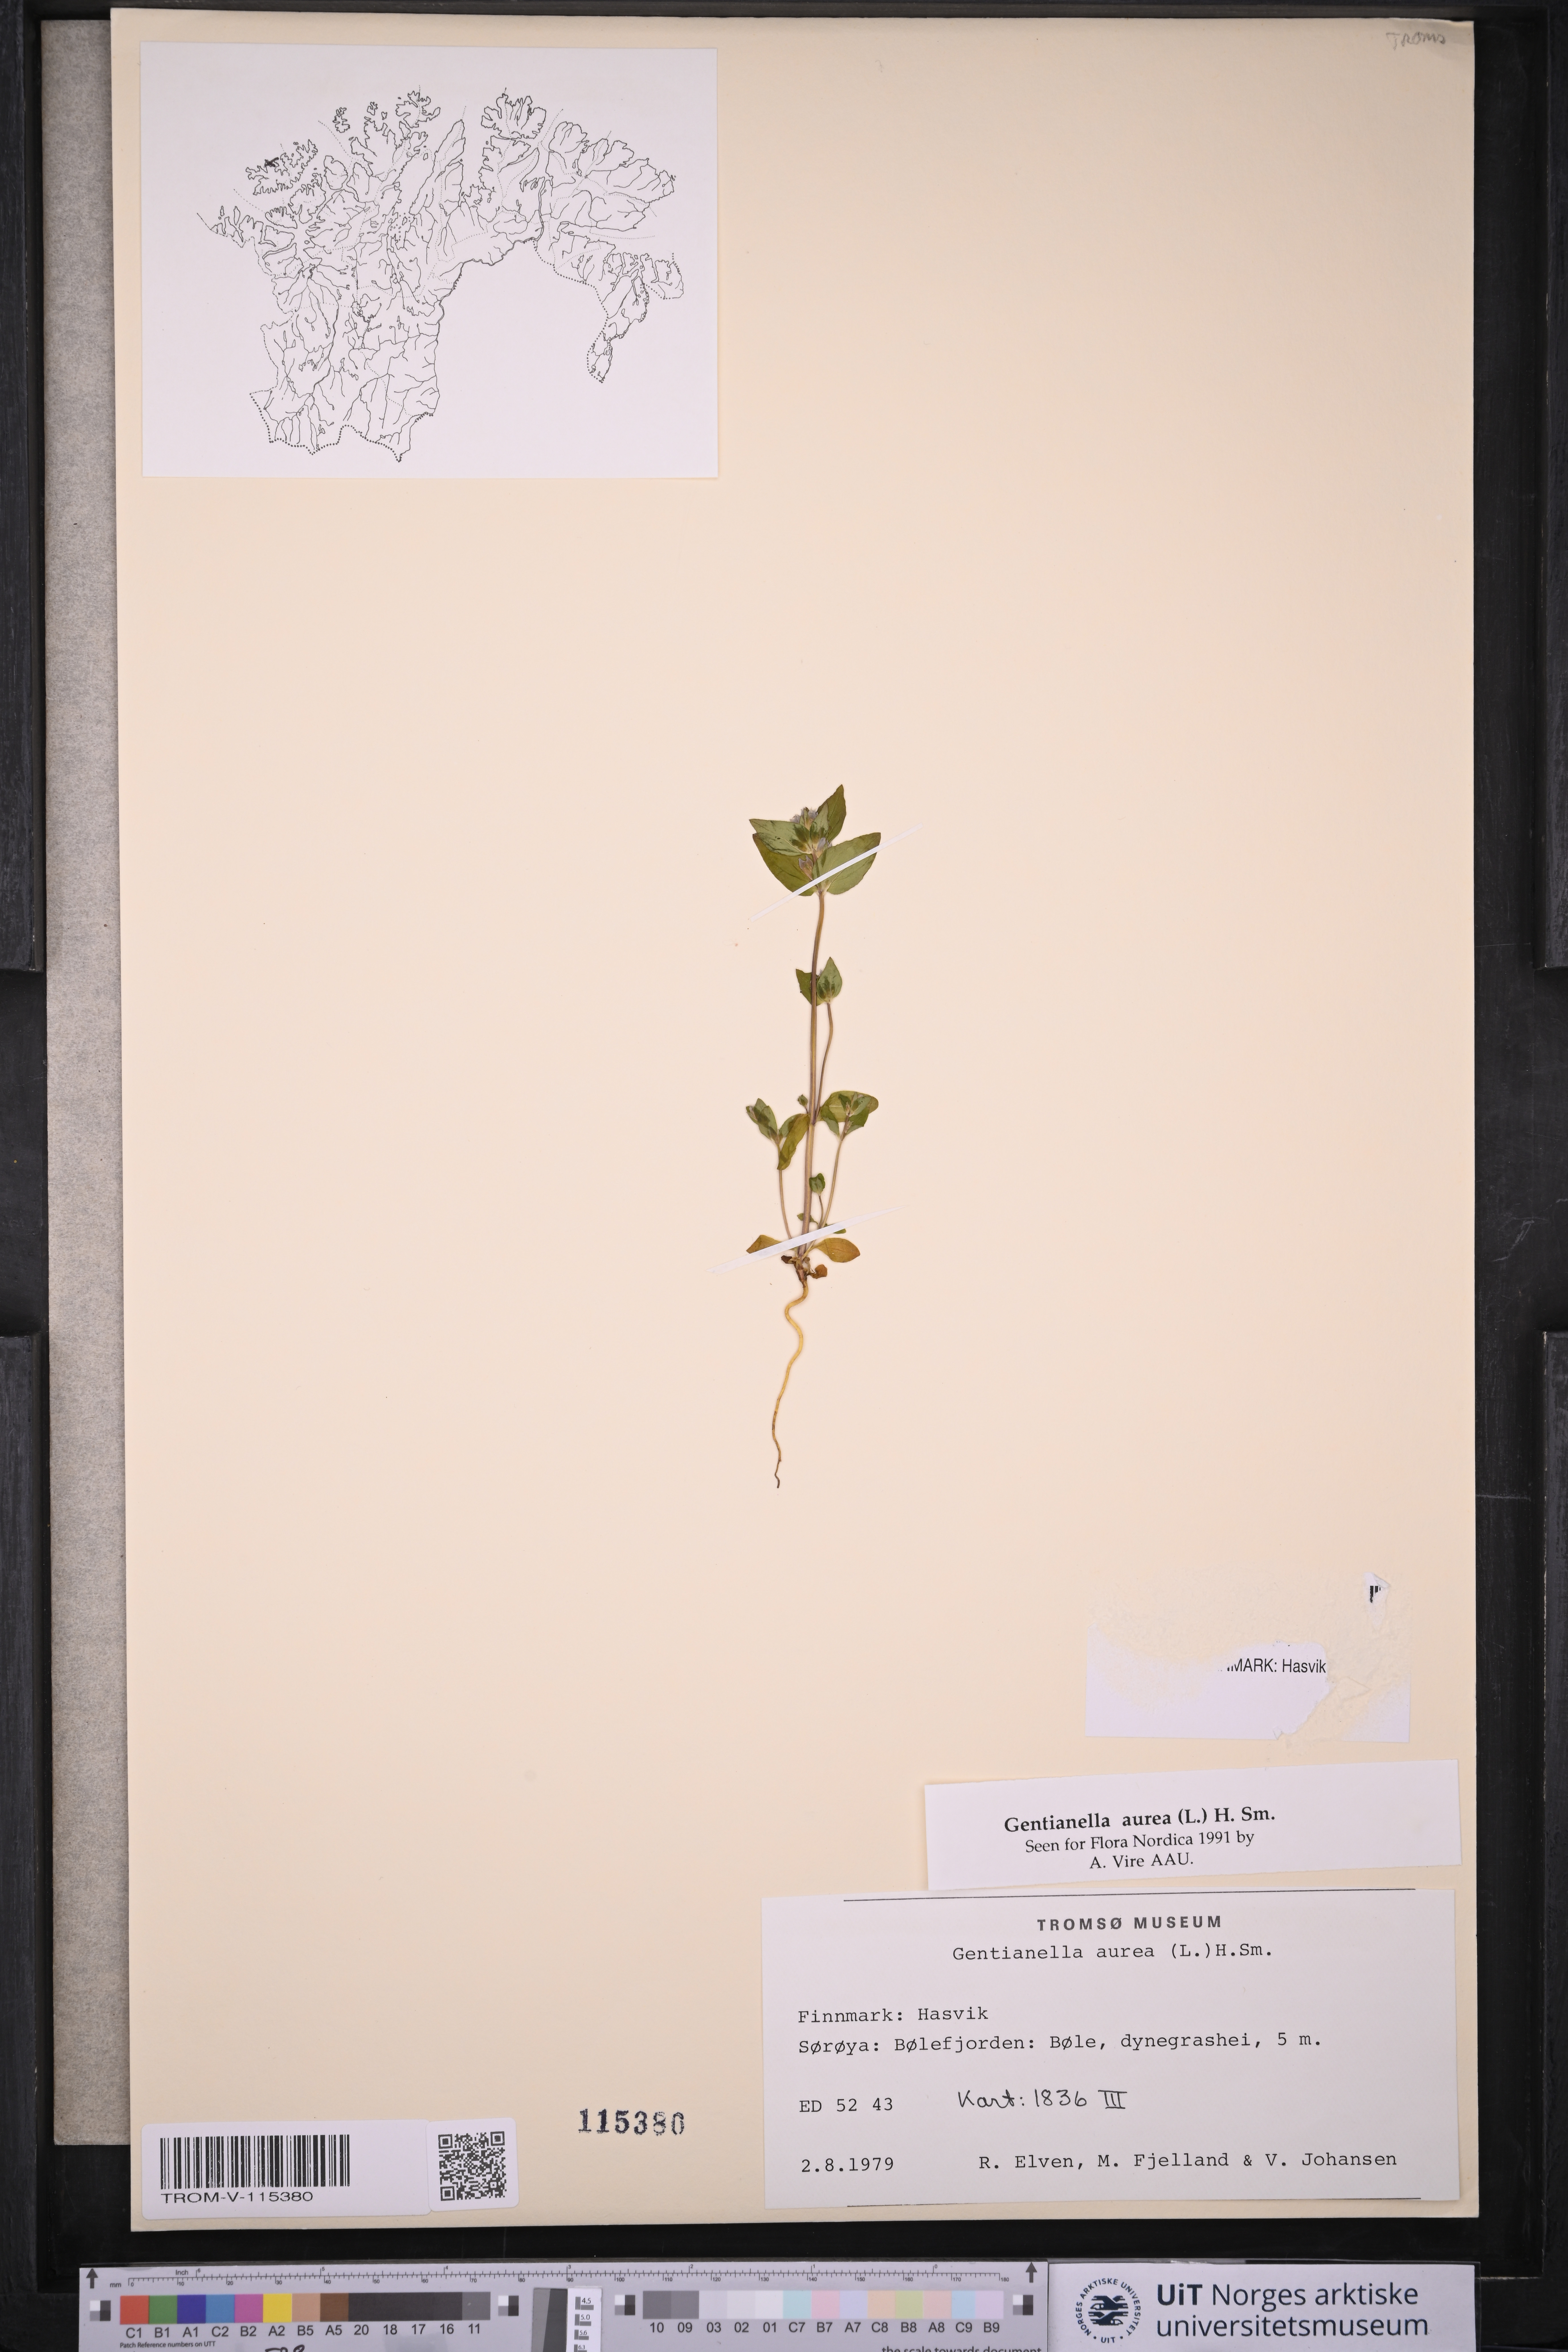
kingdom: Plantae
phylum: Tracheophyta
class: Magnoliopsida
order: Gentianales
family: Gentianaceae
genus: Gentianella
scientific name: Gentianella aurea
